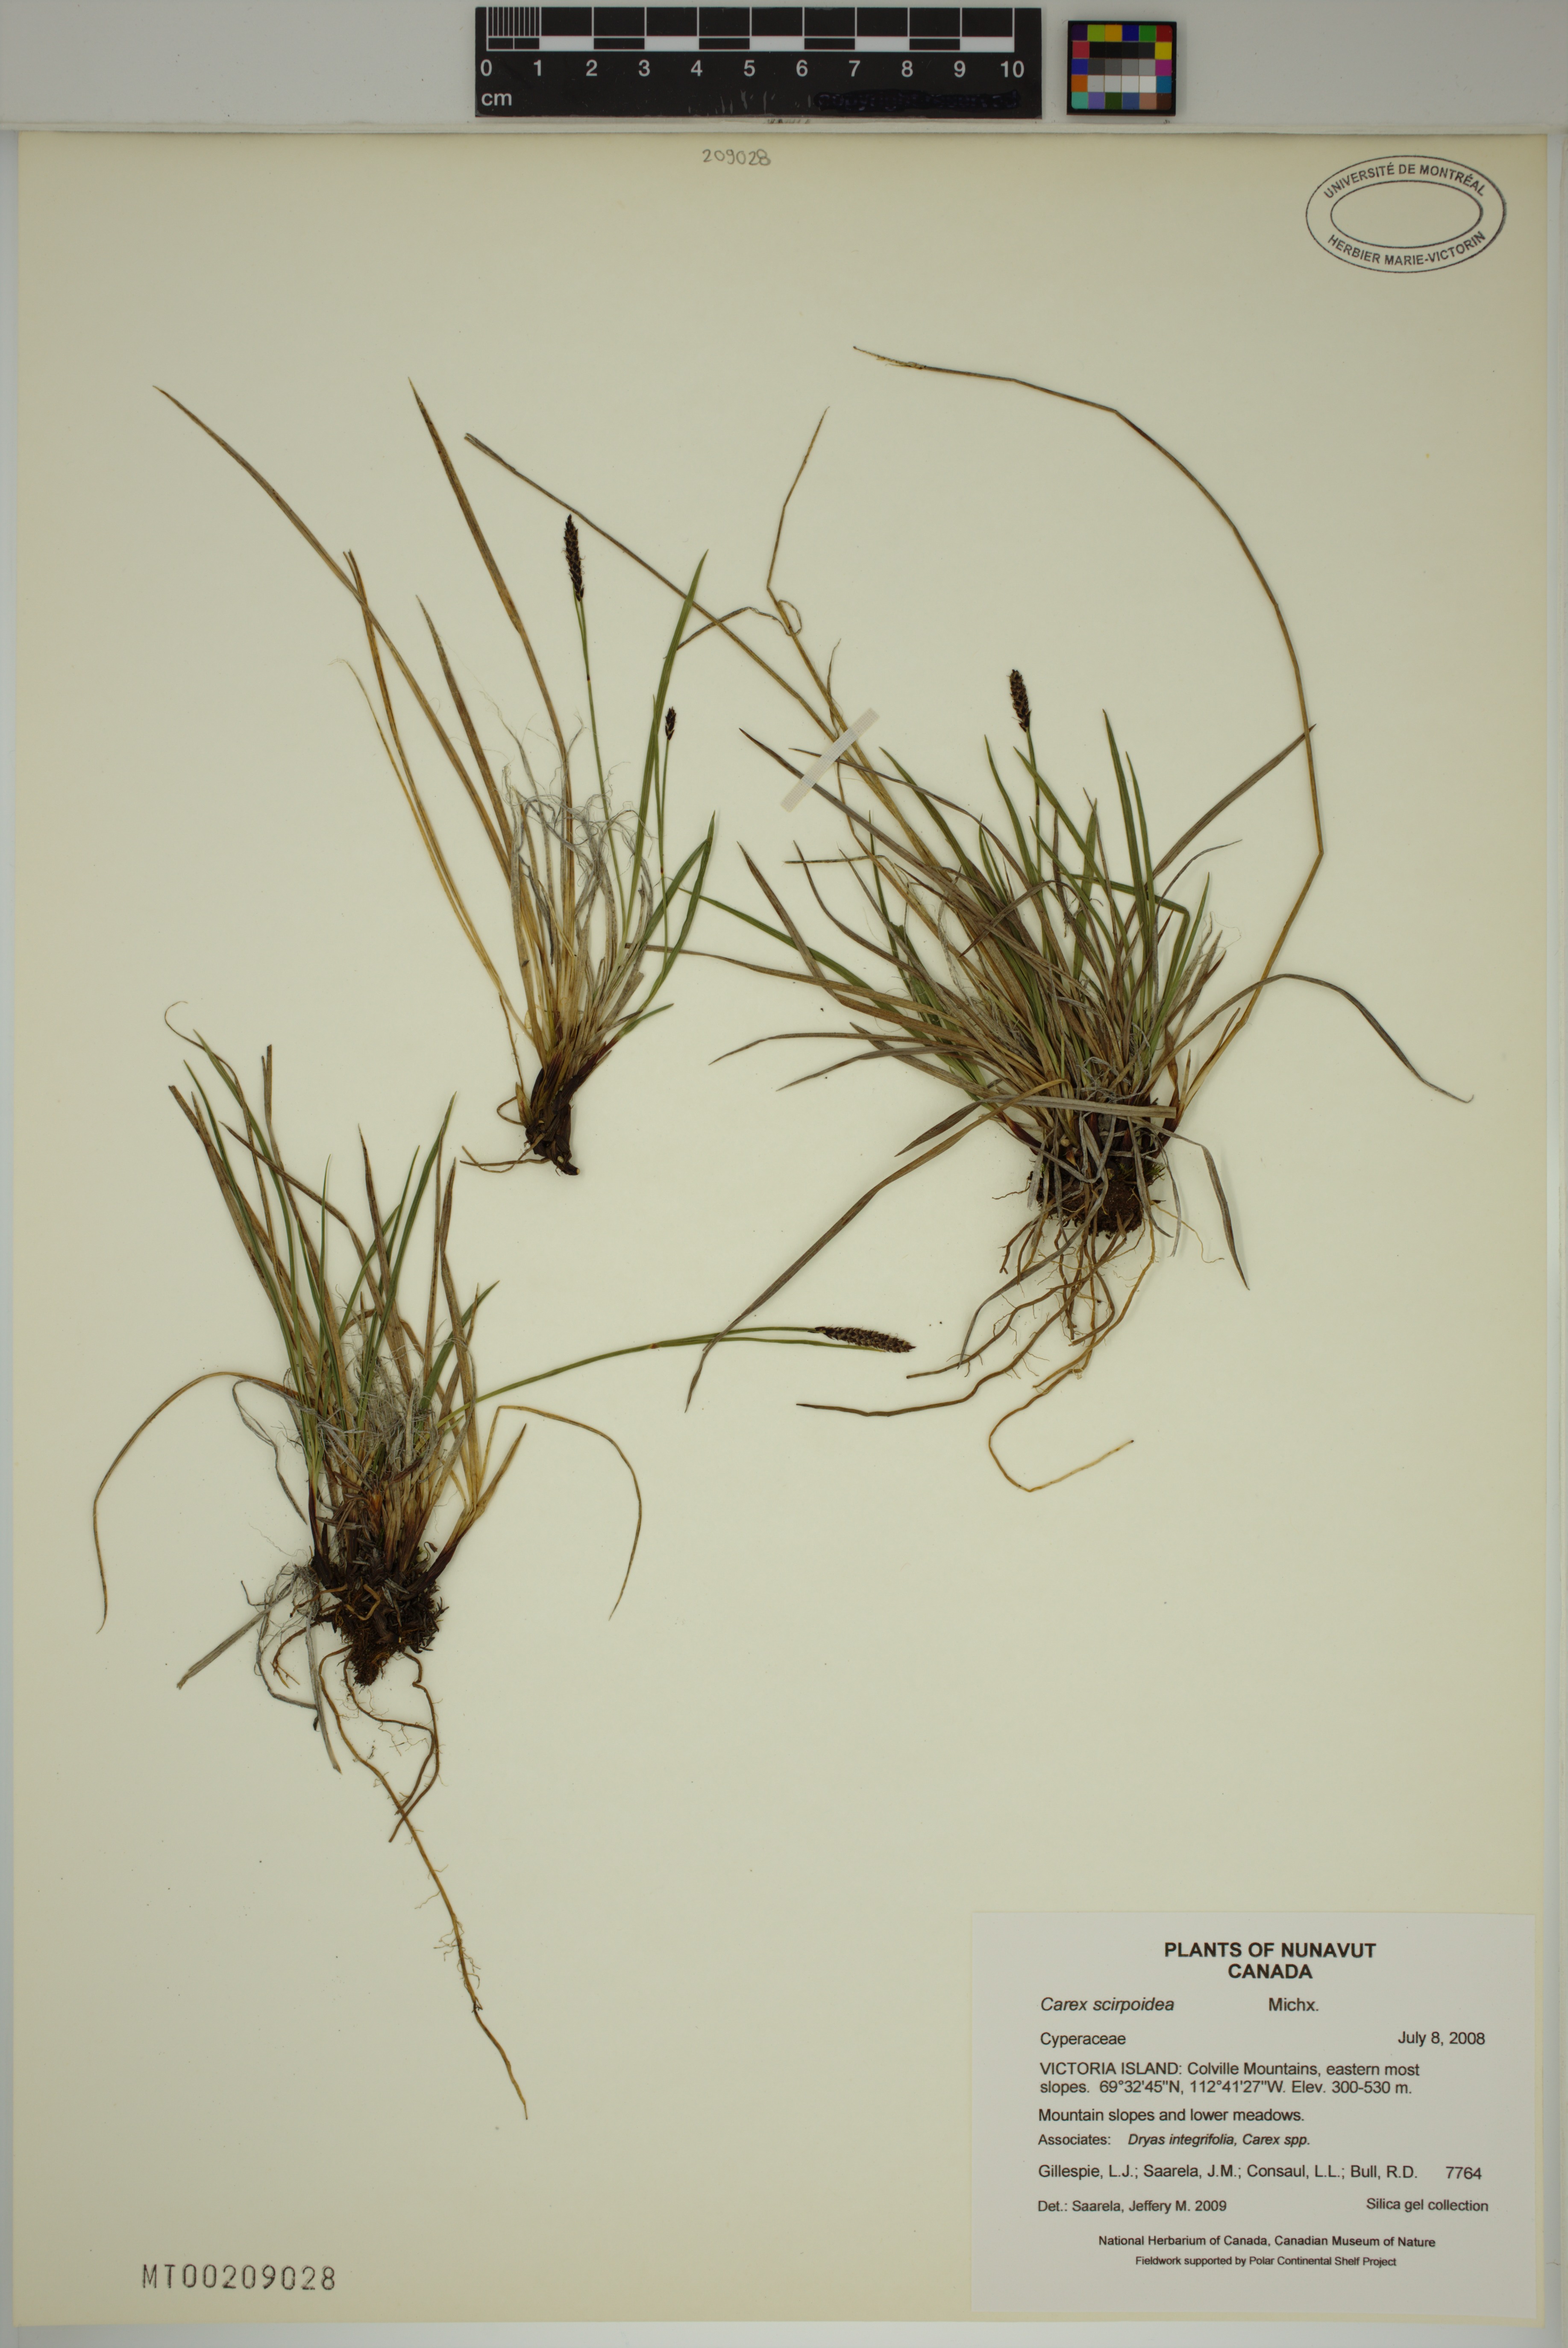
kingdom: Plantae
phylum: Tracheophyta
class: Liliopsida
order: Poales
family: Cyperaceae
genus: Carex
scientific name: Carex scirpoidea
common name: Canada single-spike sedge
